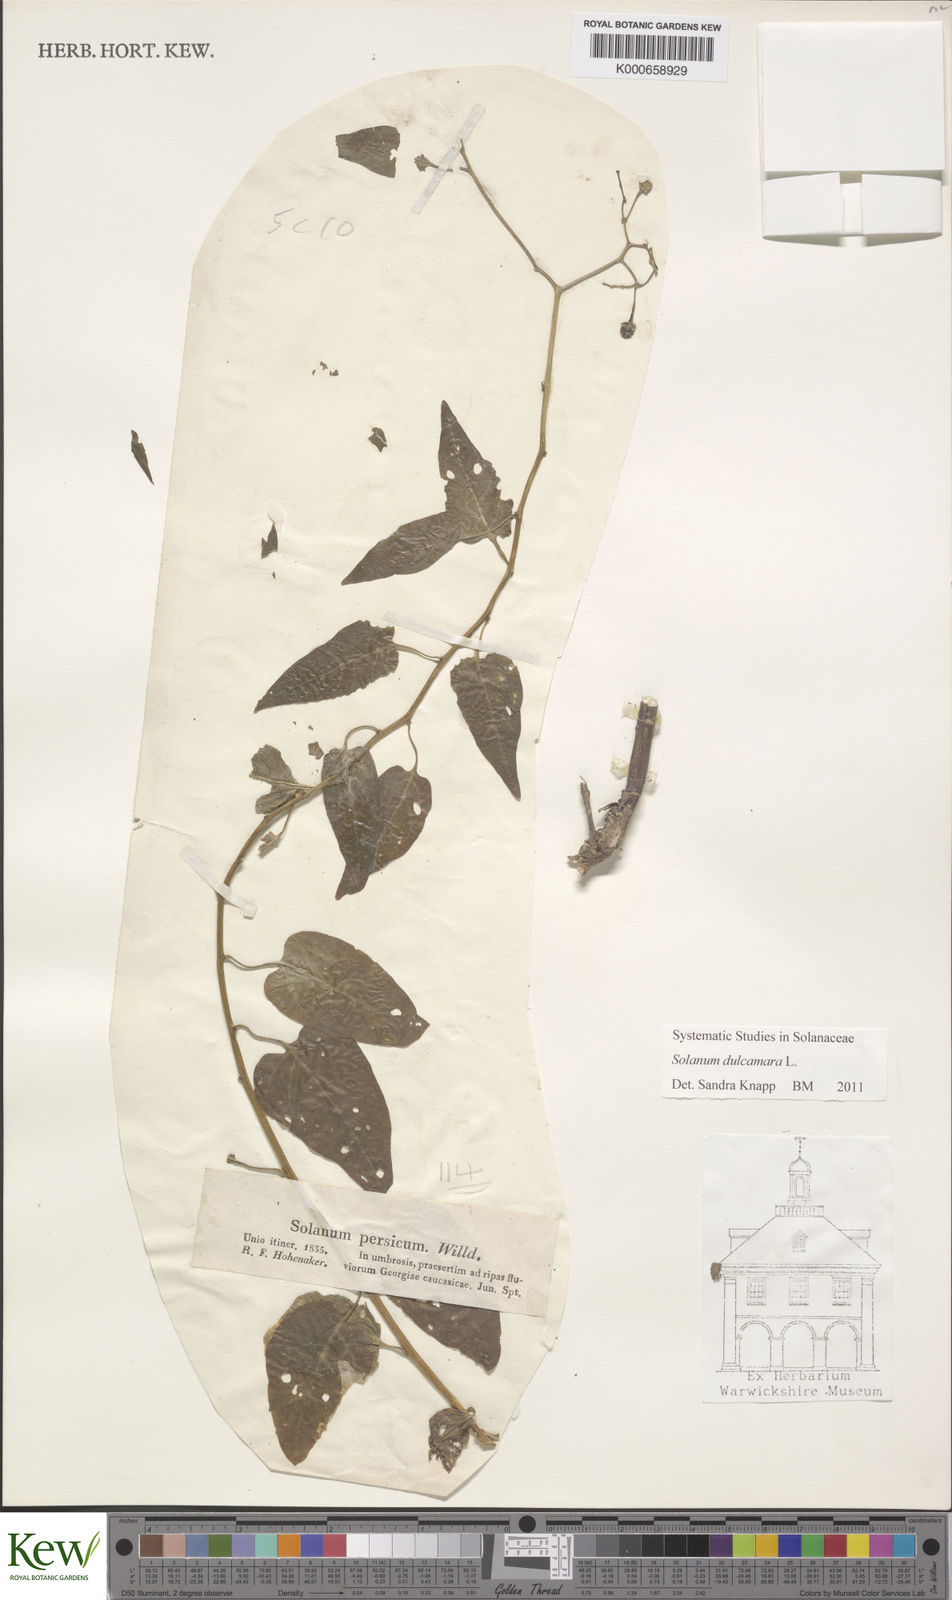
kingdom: Plantae
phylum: Tracheophyta
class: Magnoliopsida
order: Solanales
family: Solanaceae
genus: Solanum
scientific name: Solanum dulcamara
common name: Climbing nightshade
